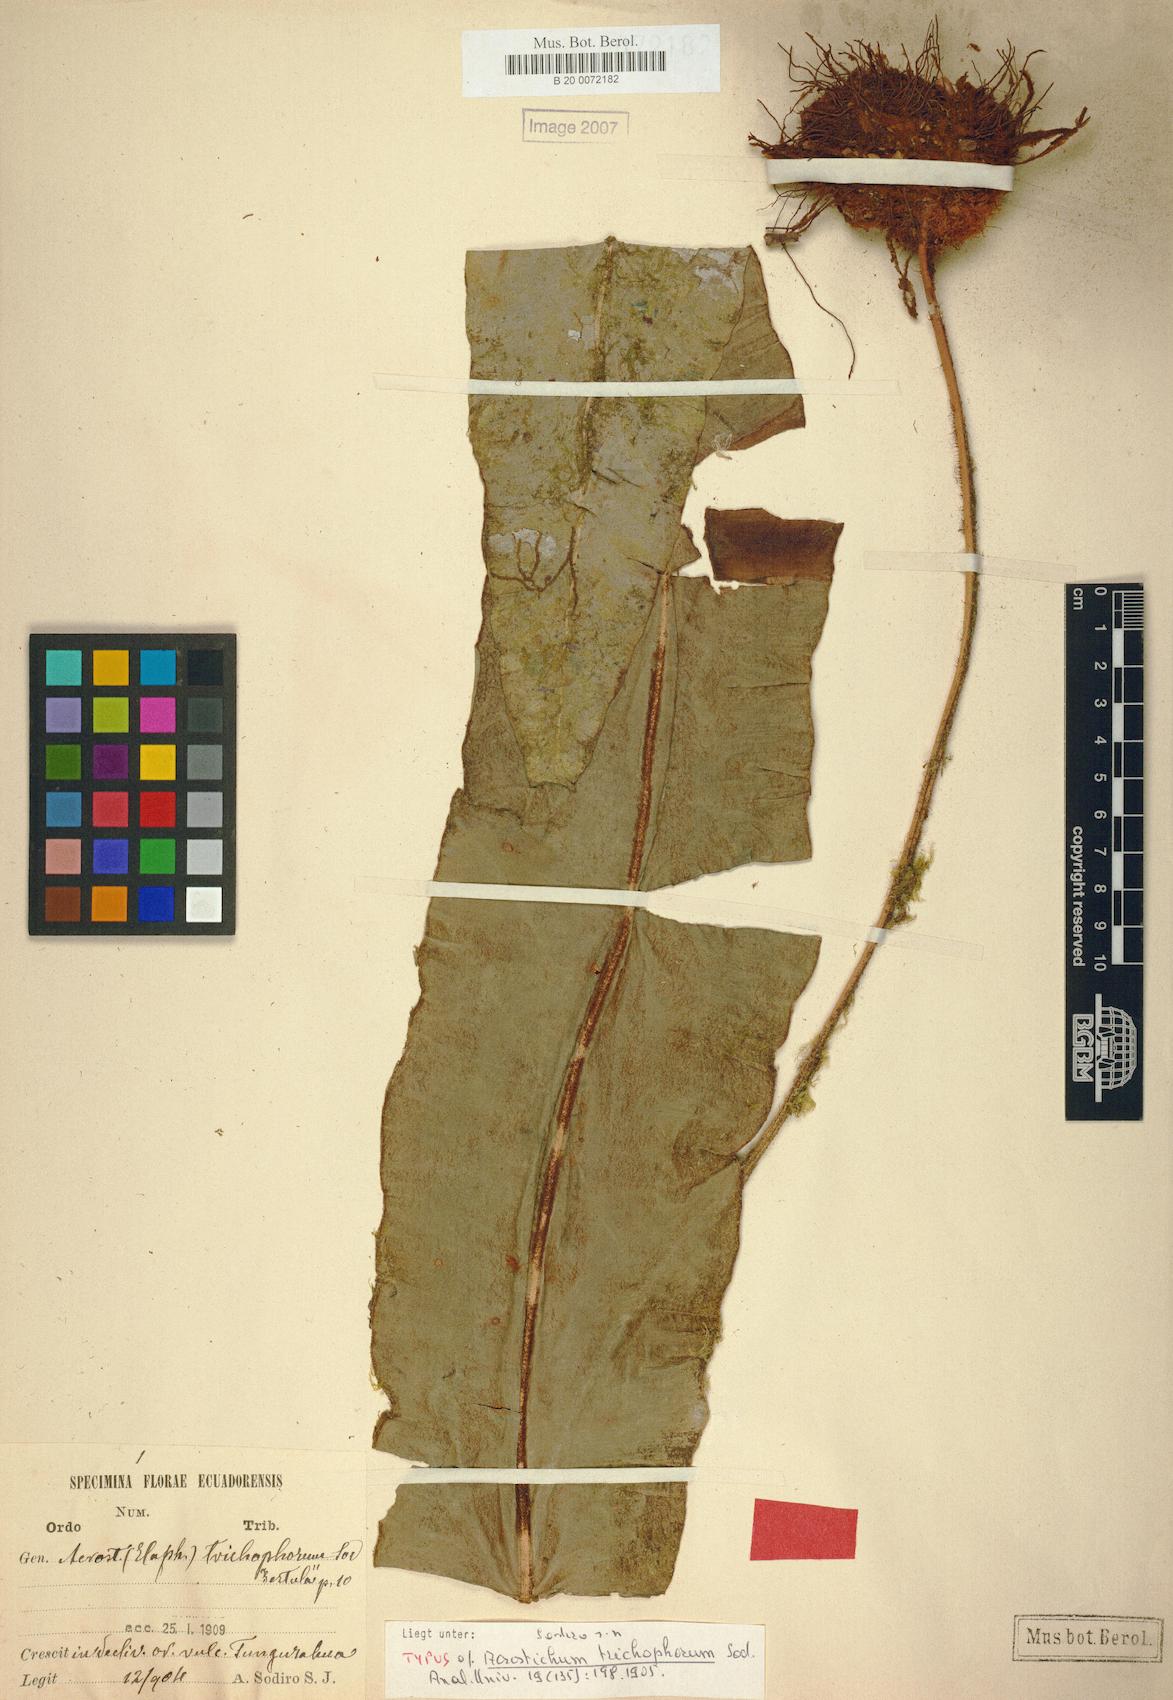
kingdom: Plantae
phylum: Tracheophyta
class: Polypodiopsida
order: Polypodiales
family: Dryopteridaceae
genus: Elaphoglossum
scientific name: Elaphoglossum trichophorum
